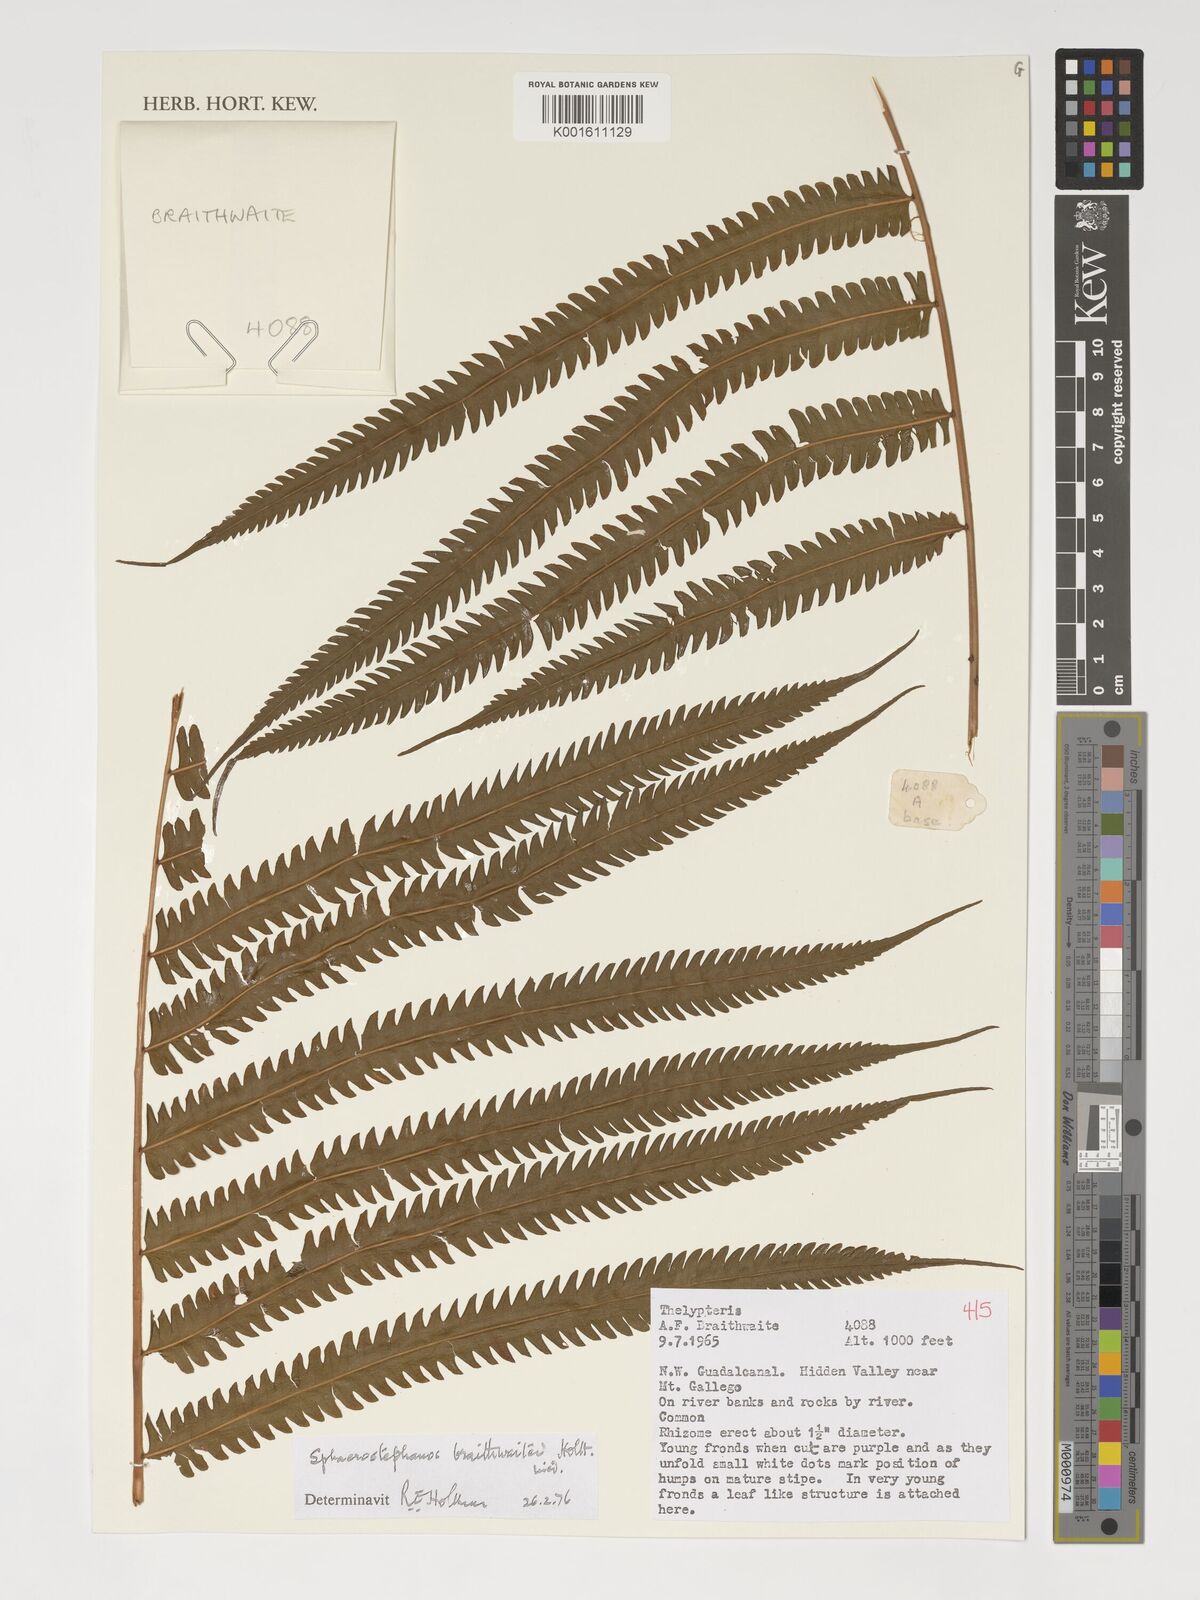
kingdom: Plantae
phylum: Tracheophyta
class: Polypodiopsida
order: Polypodiales
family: Thelypteridaceae
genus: Sphaerostephanos
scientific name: Sphaerostephanos braithwaitei
